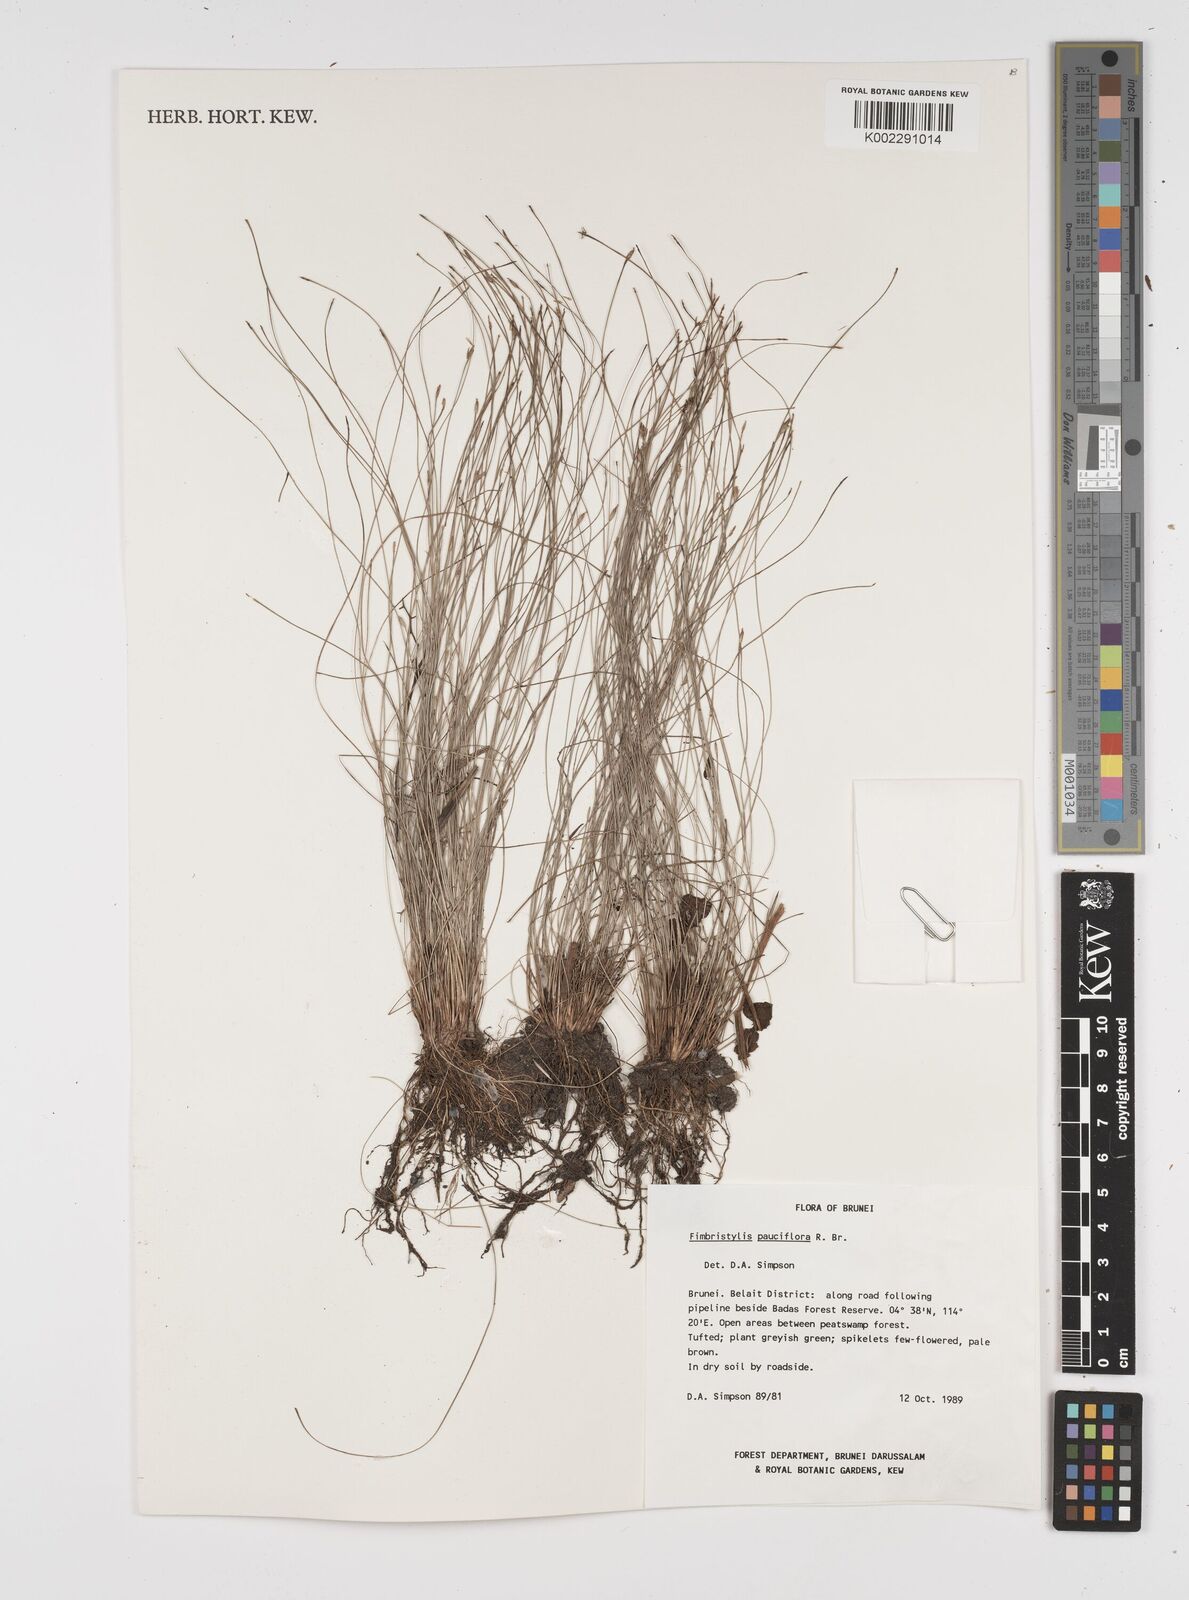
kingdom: Plantae
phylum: Tracheophyta
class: Liliopsida
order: Poales
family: Cyperaceae
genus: Fimbristylis
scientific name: Fimbristylis pauciflora
